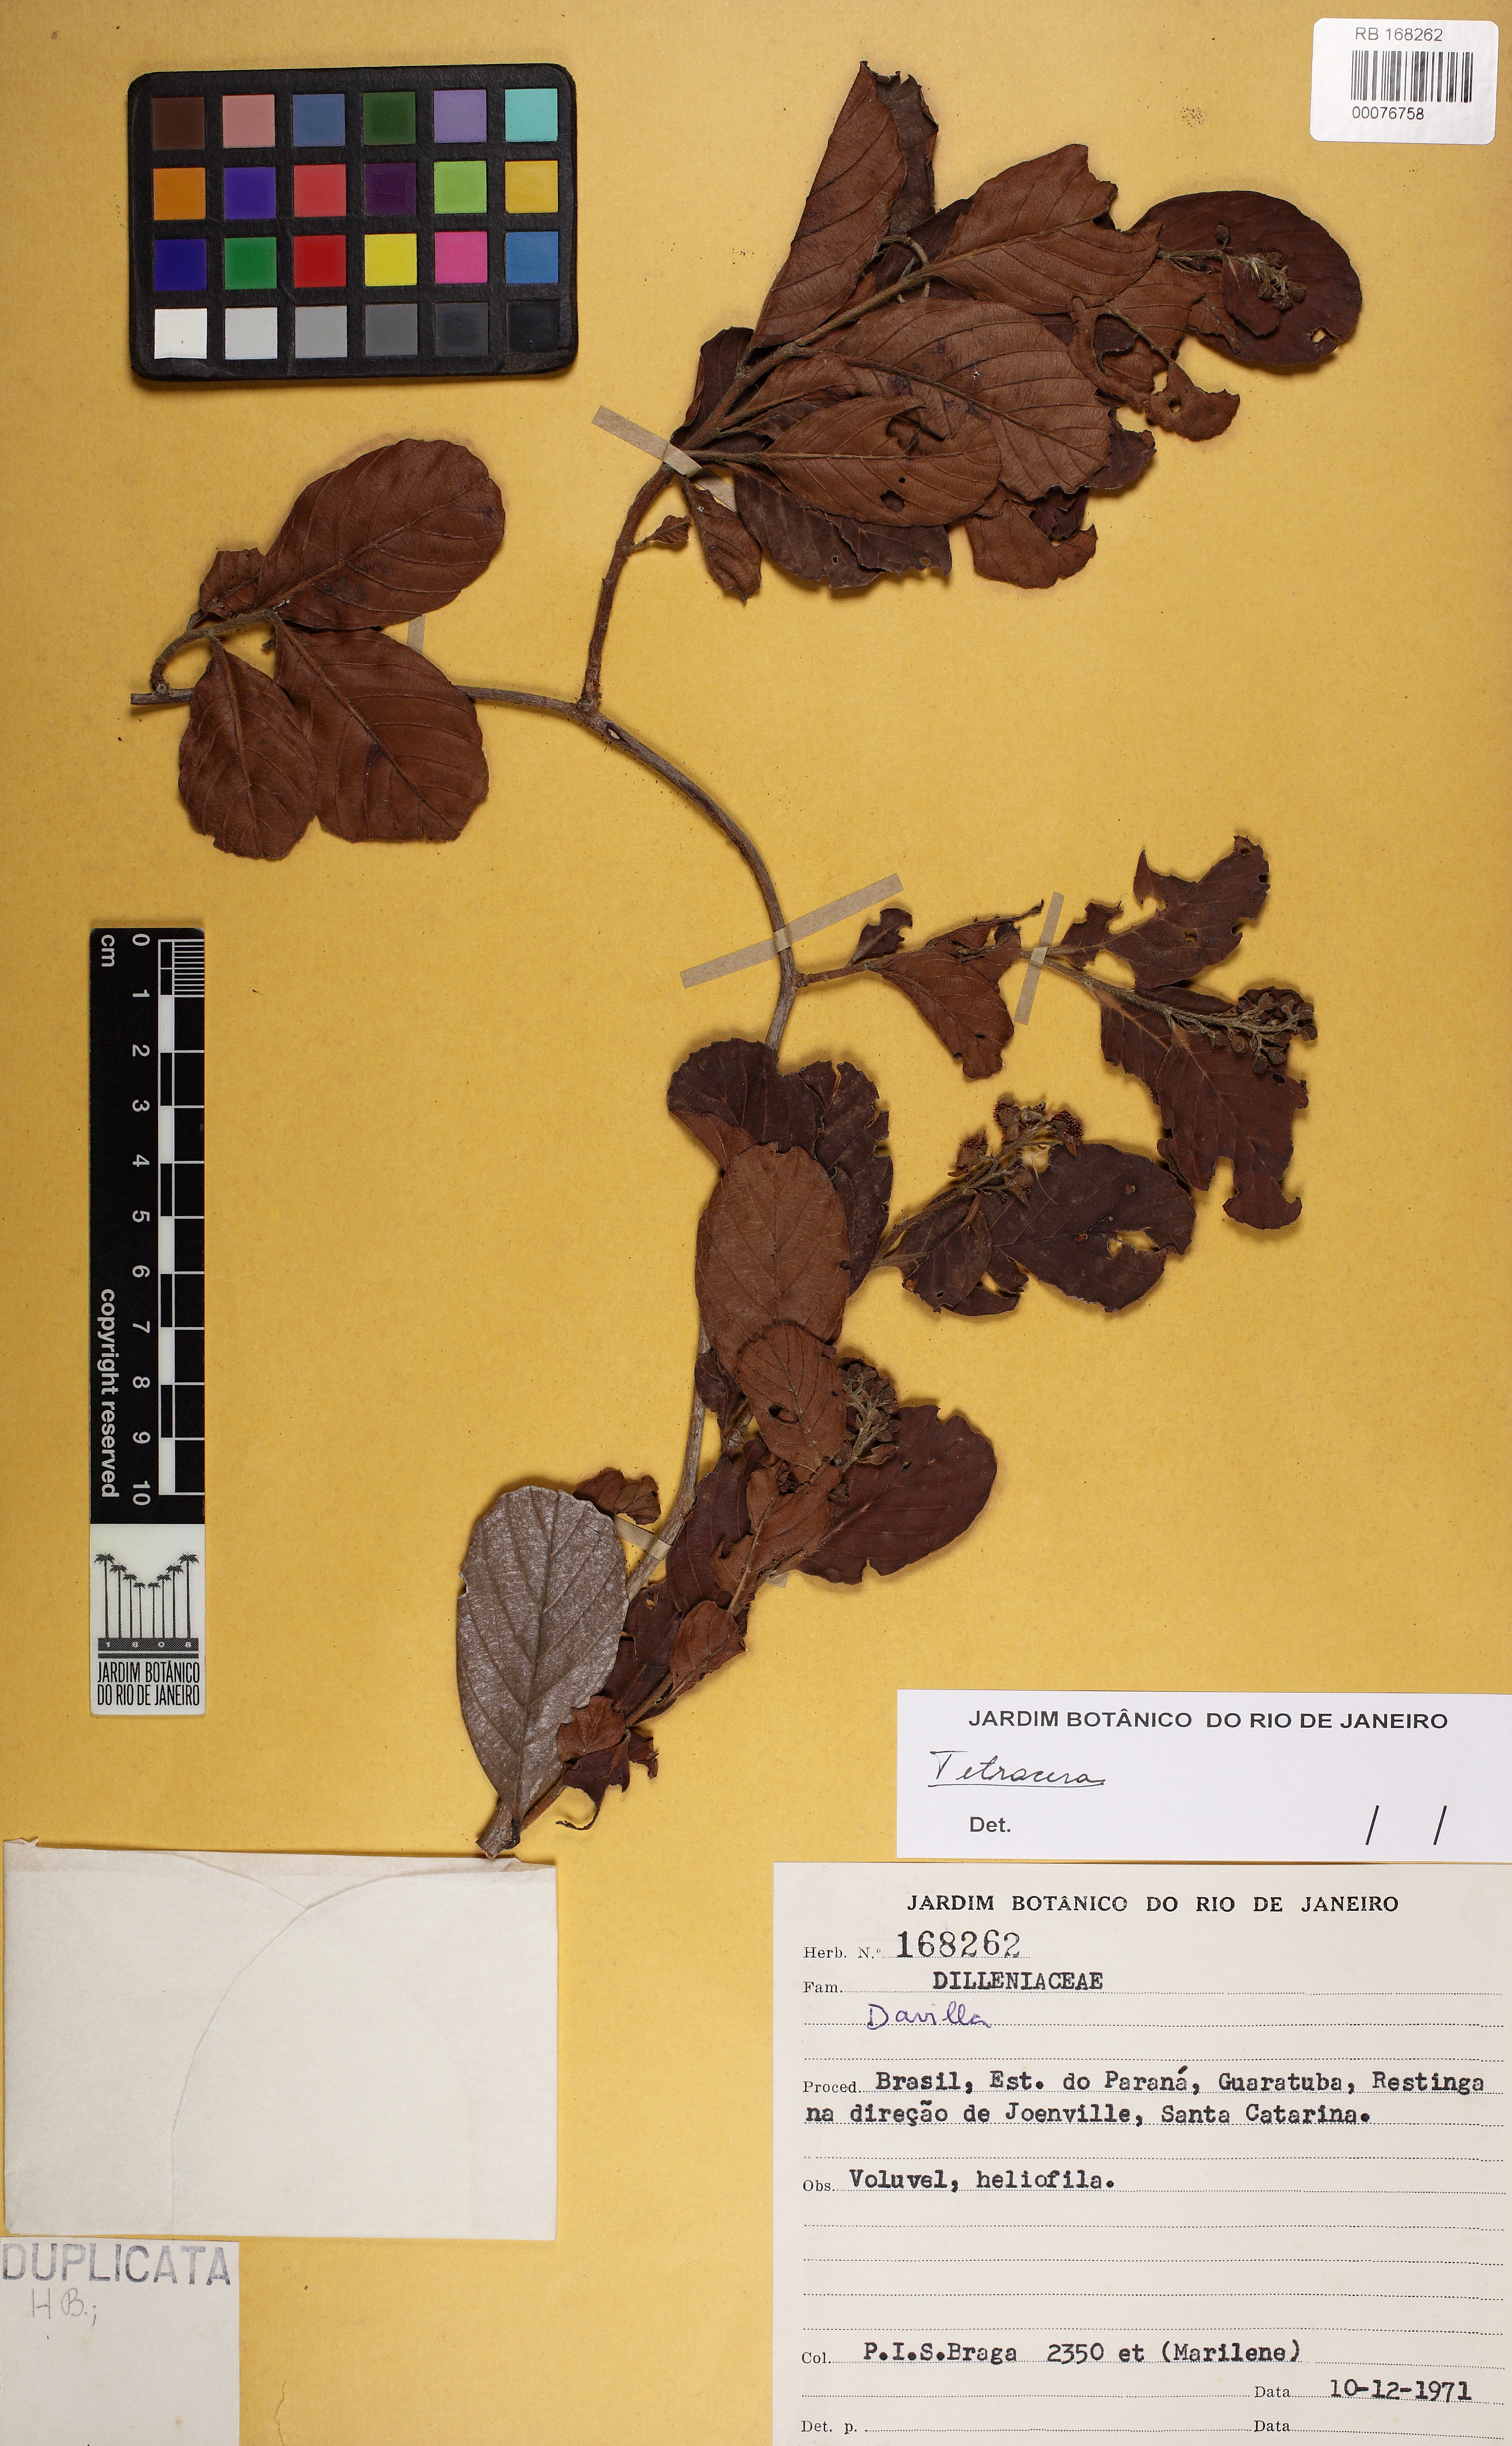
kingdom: Plantae
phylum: Tracheophyta
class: Magnoliopsida
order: Dilleniales
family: Dilleniaceae
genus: Tetracera
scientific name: Tetracera sellowiana
